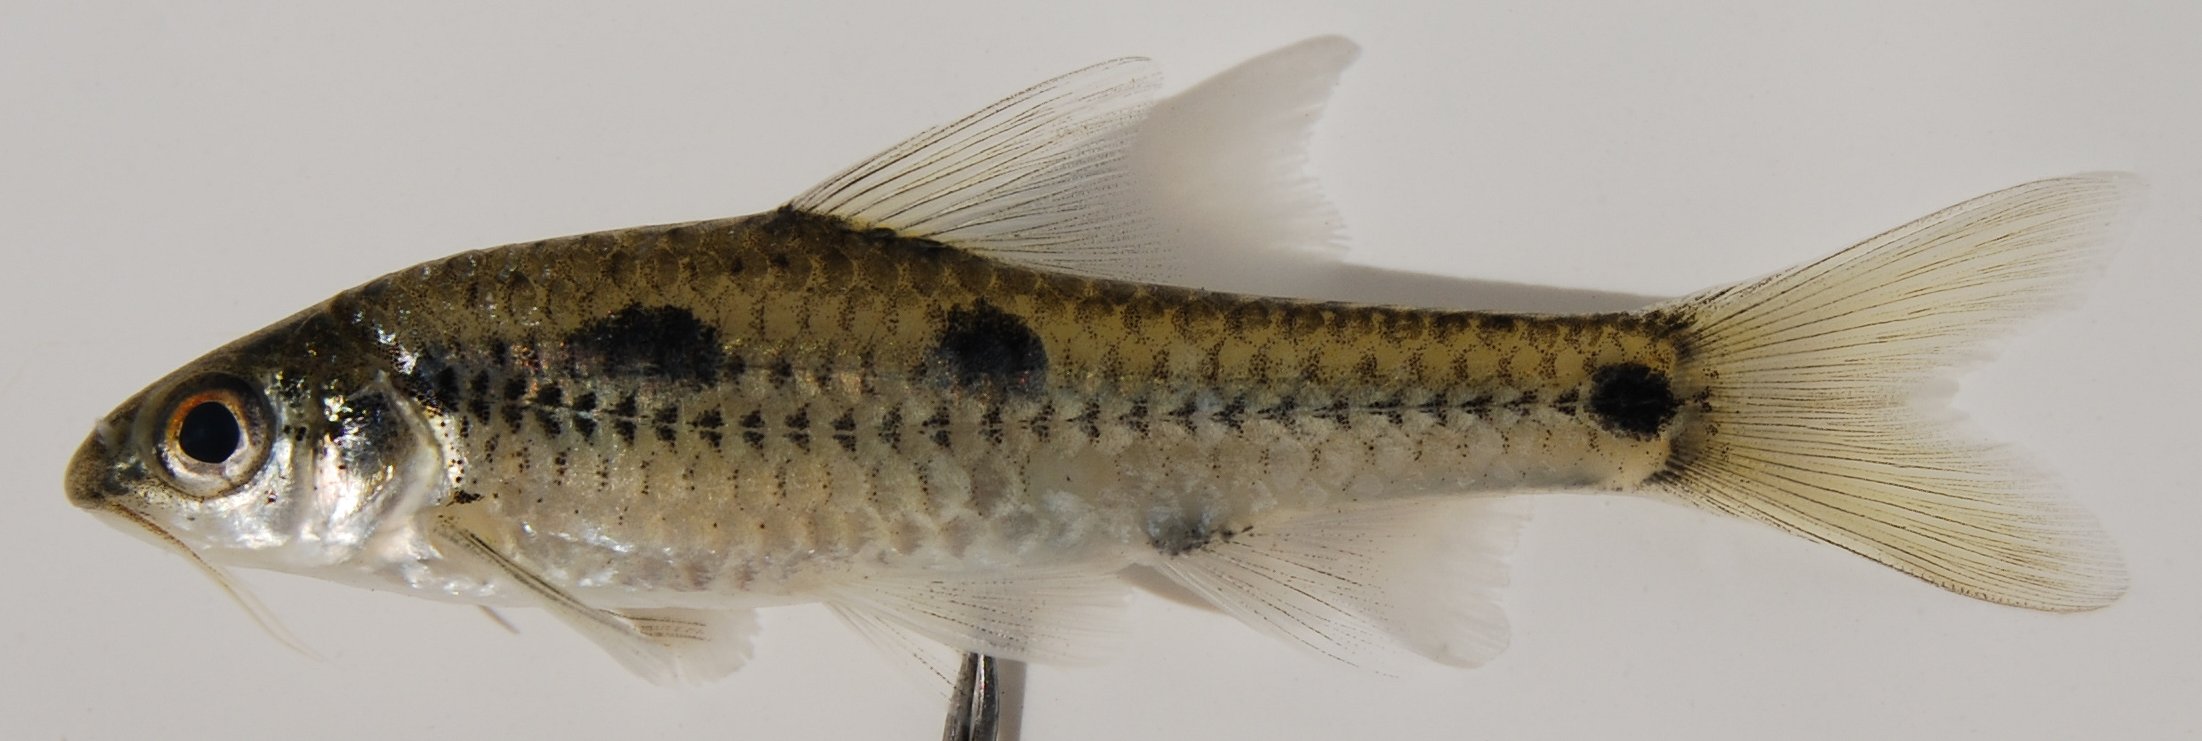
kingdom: Animalia
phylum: Chordata
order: Cypriniformes
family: Cyprinidae
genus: Enteromius
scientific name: Enteromius lineomaculatus
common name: Line-spotted barb
